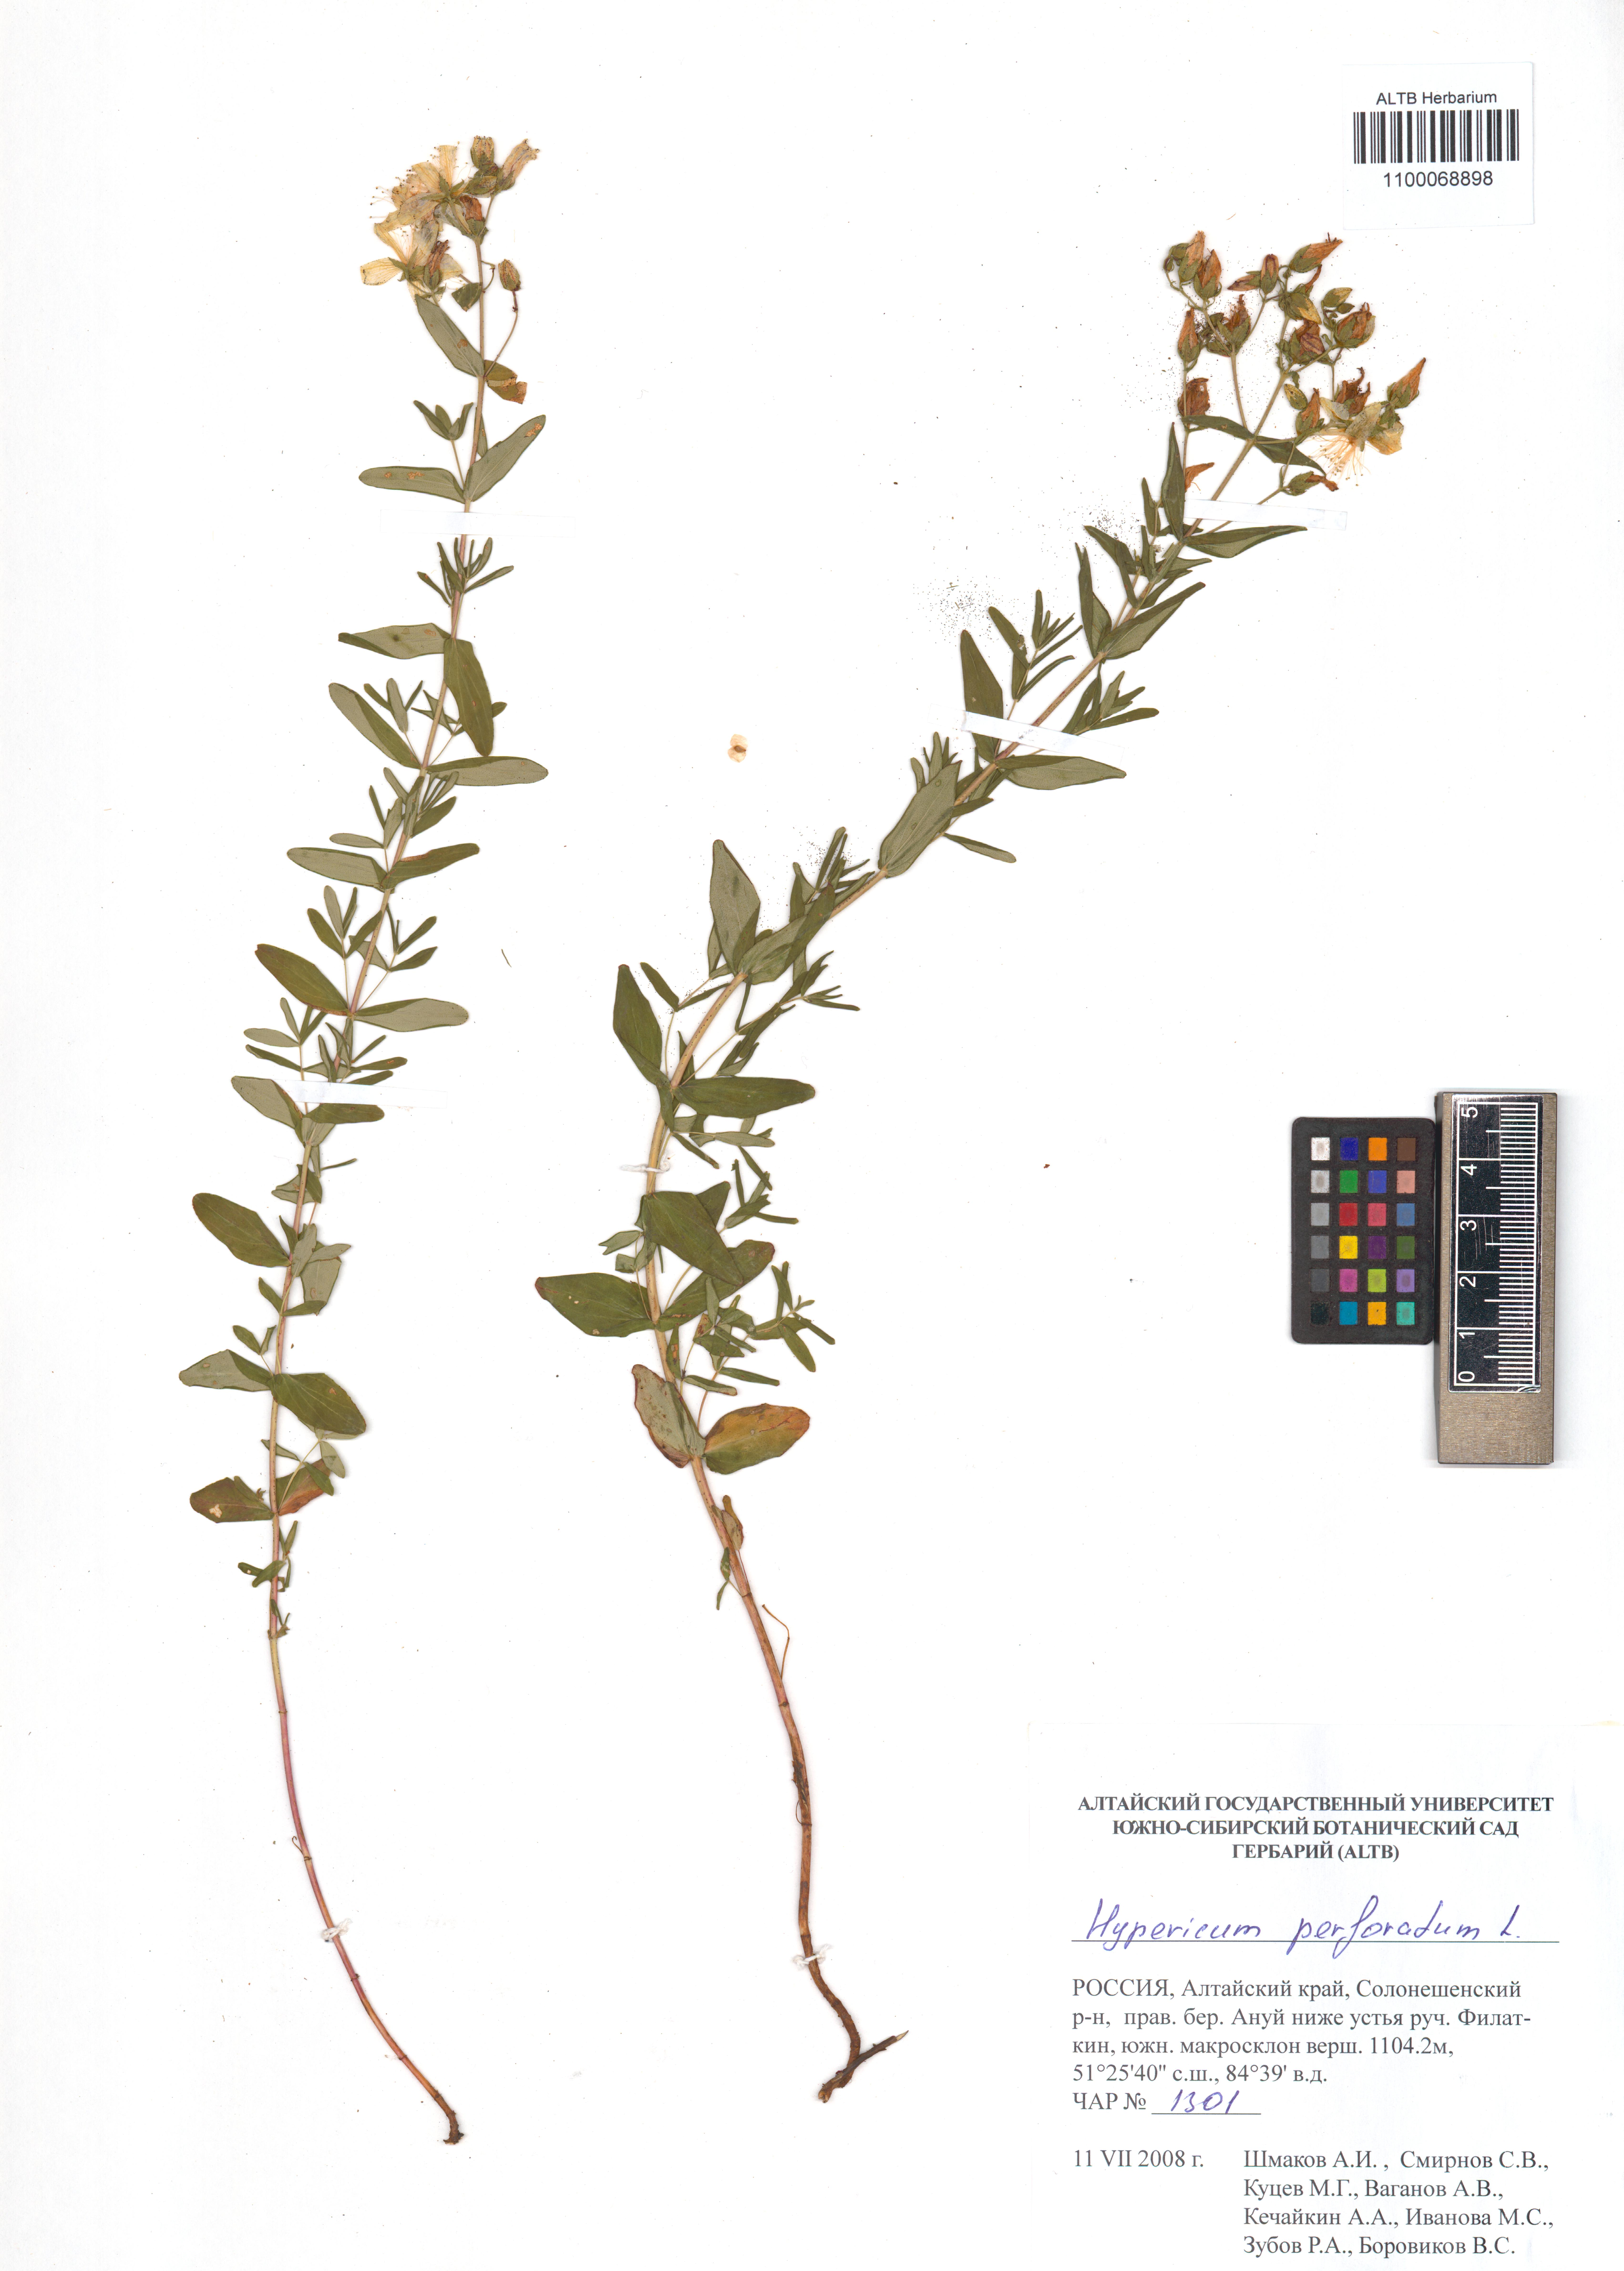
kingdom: Plantae
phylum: Tracheophyta
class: Magnoliopsida
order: Malpighiales
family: Hypericaceae
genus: Hypericum
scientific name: Hypericum perforatum
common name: Common st. johnswort
